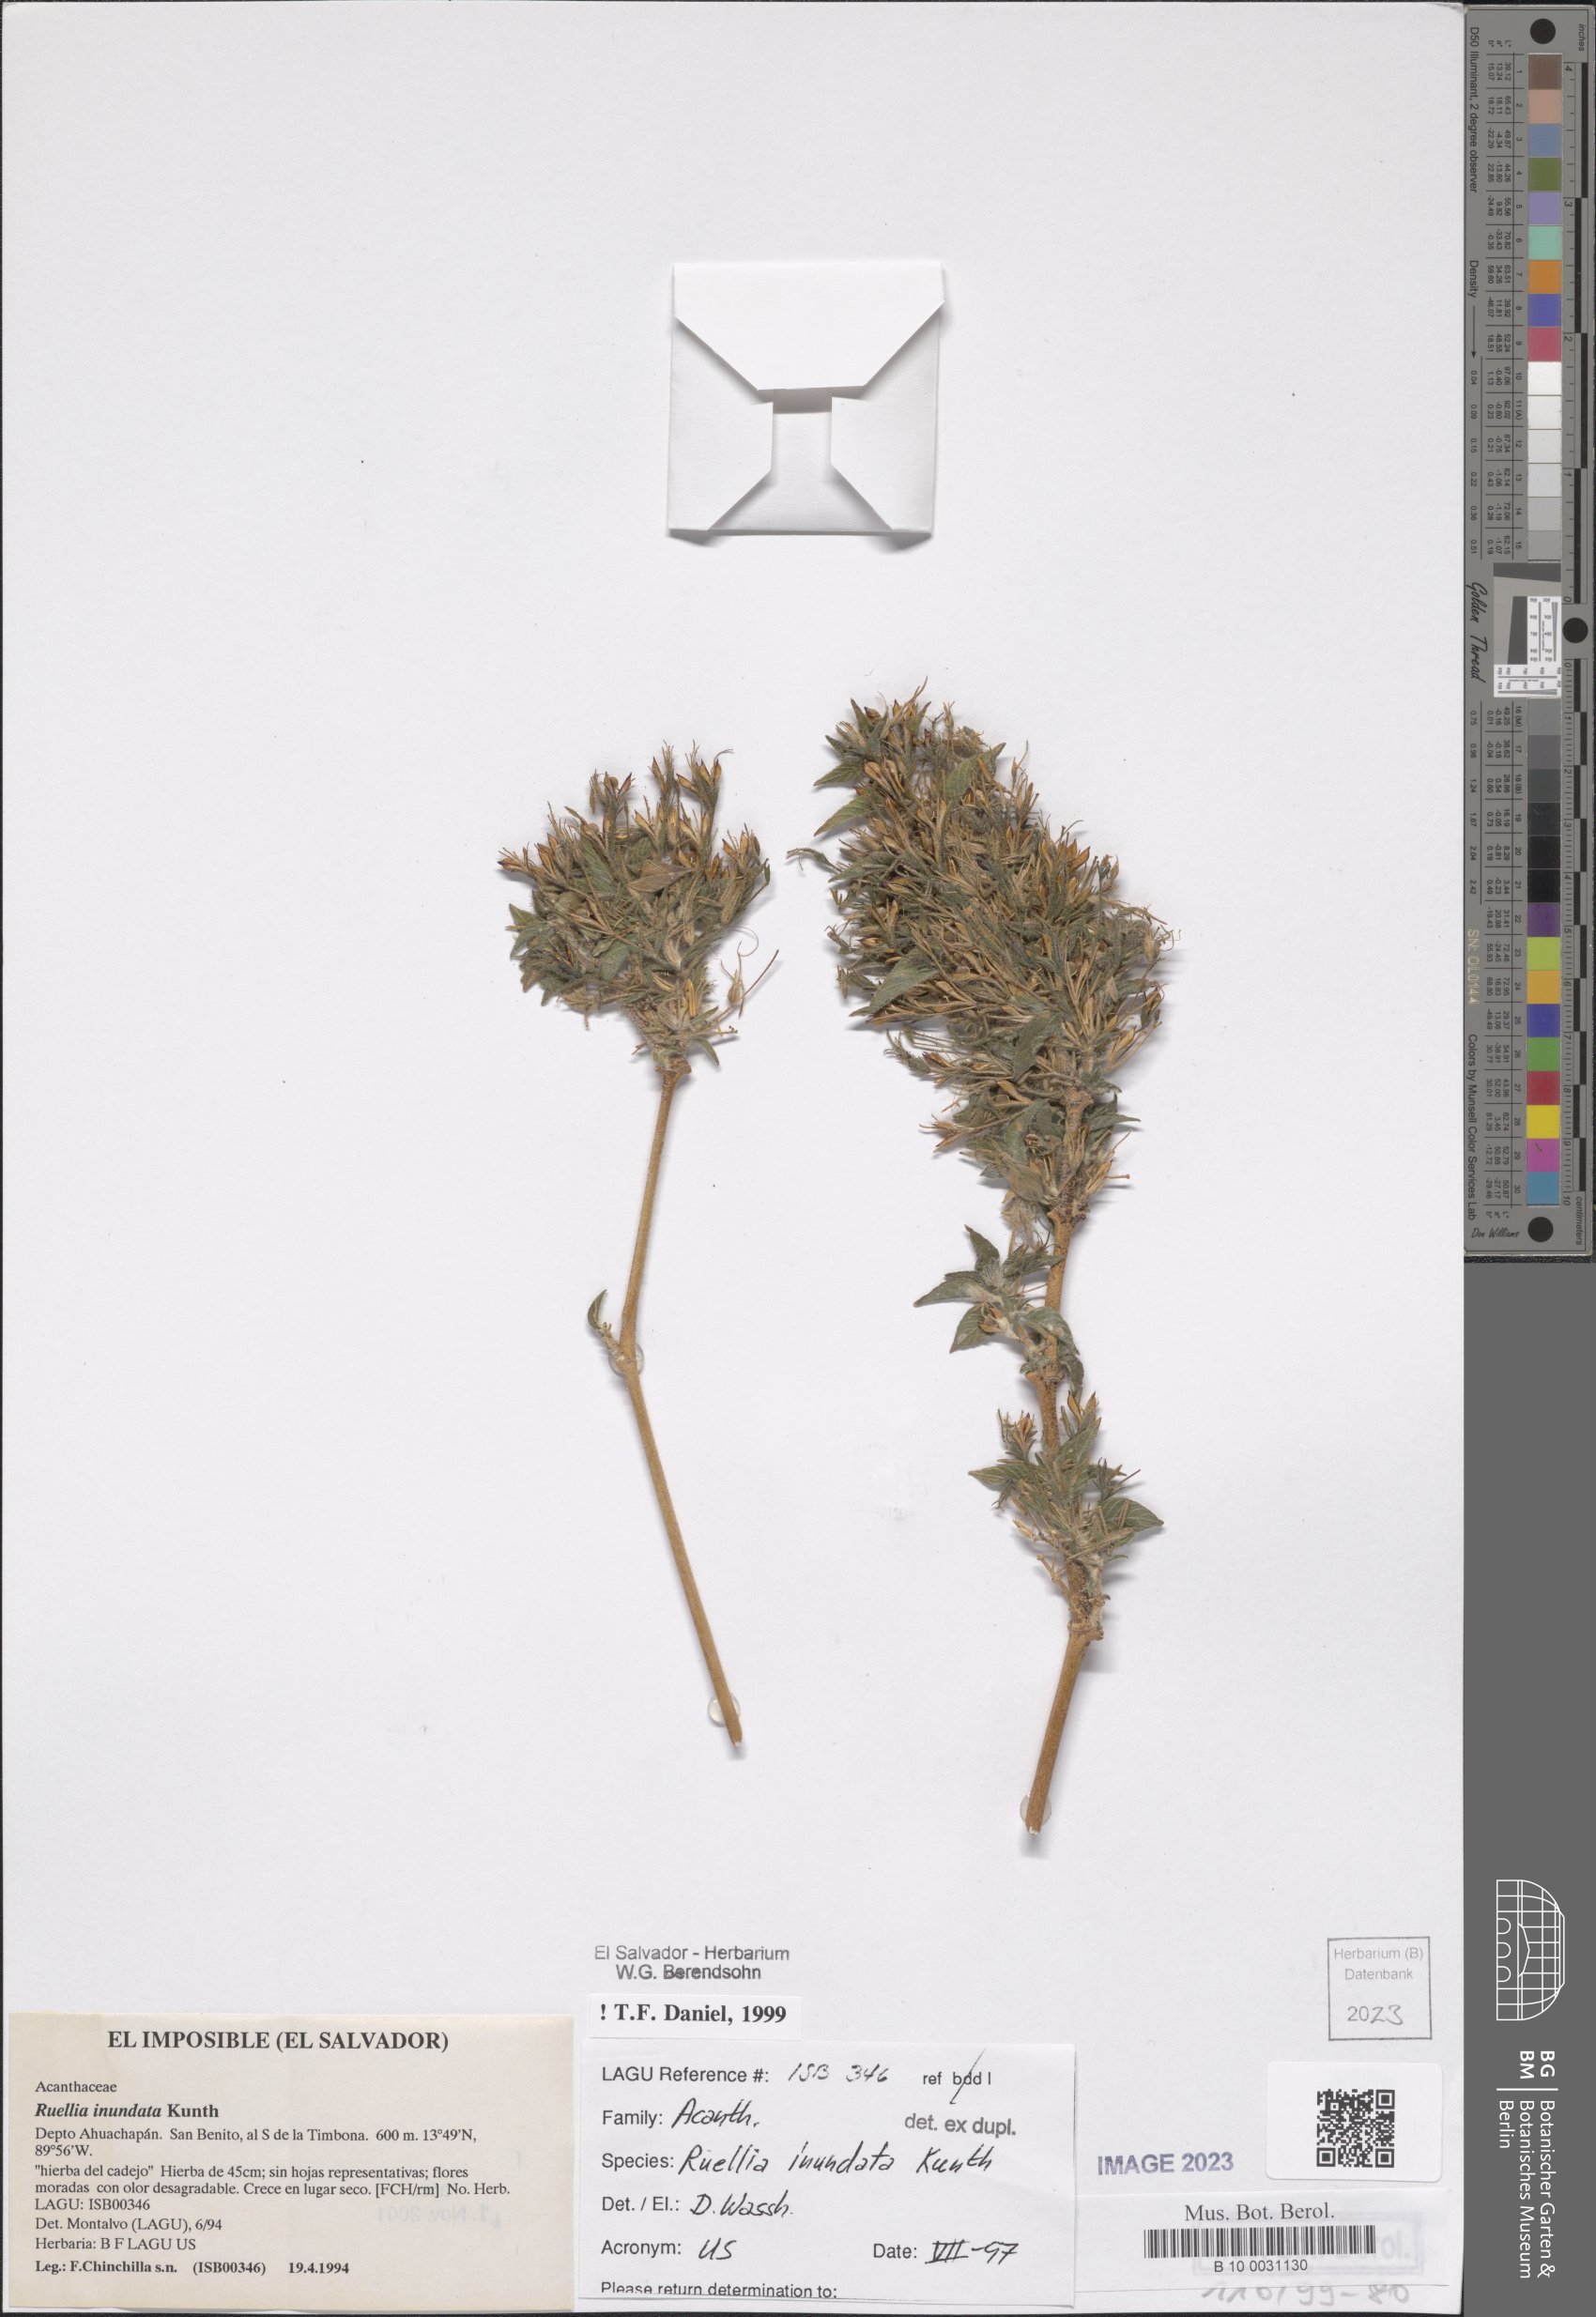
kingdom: Plantae
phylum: Tracheophyta
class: Magnoliopsida
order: Lamiales
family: Acanthaceae
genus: Ruellia
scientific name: Ruellia inundata
